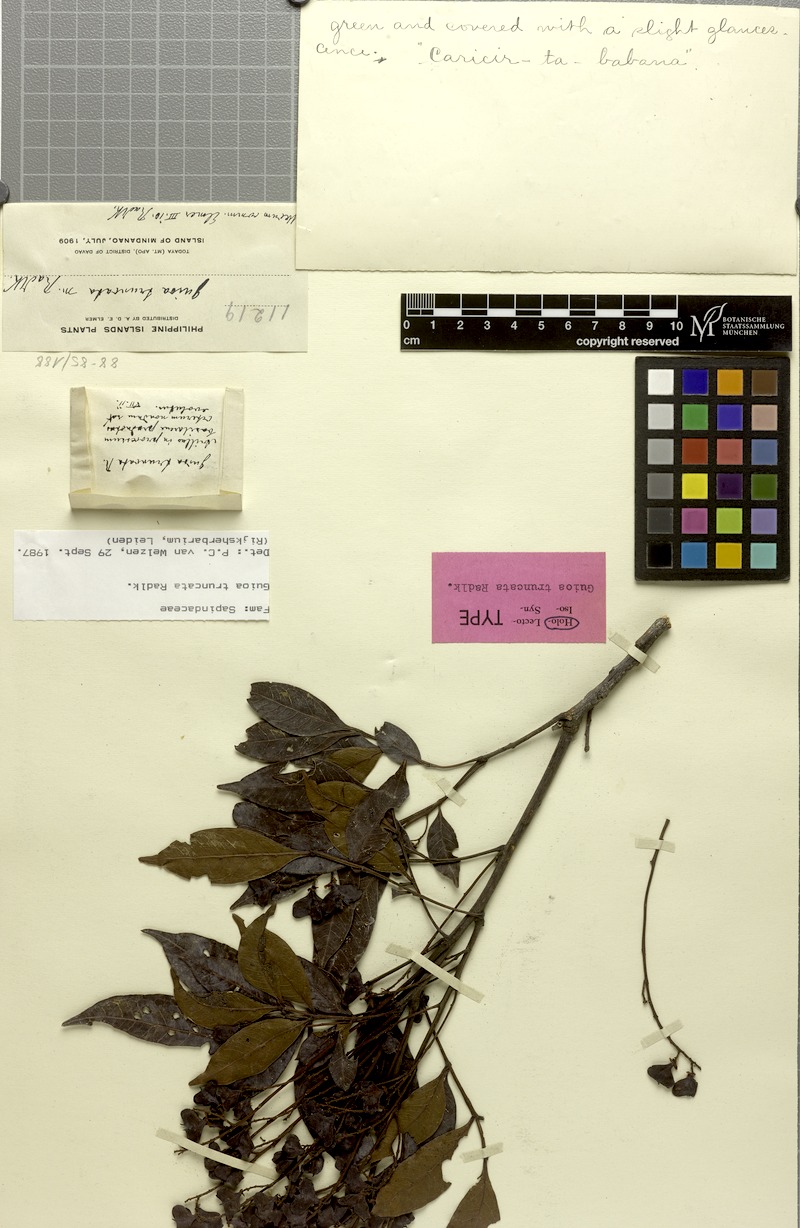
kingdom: Plantae
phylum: Tracheophyta
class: Magnoliopsida
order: Sapindales
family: Sapindaceae
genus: Guioa
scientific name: Guioa truncata
